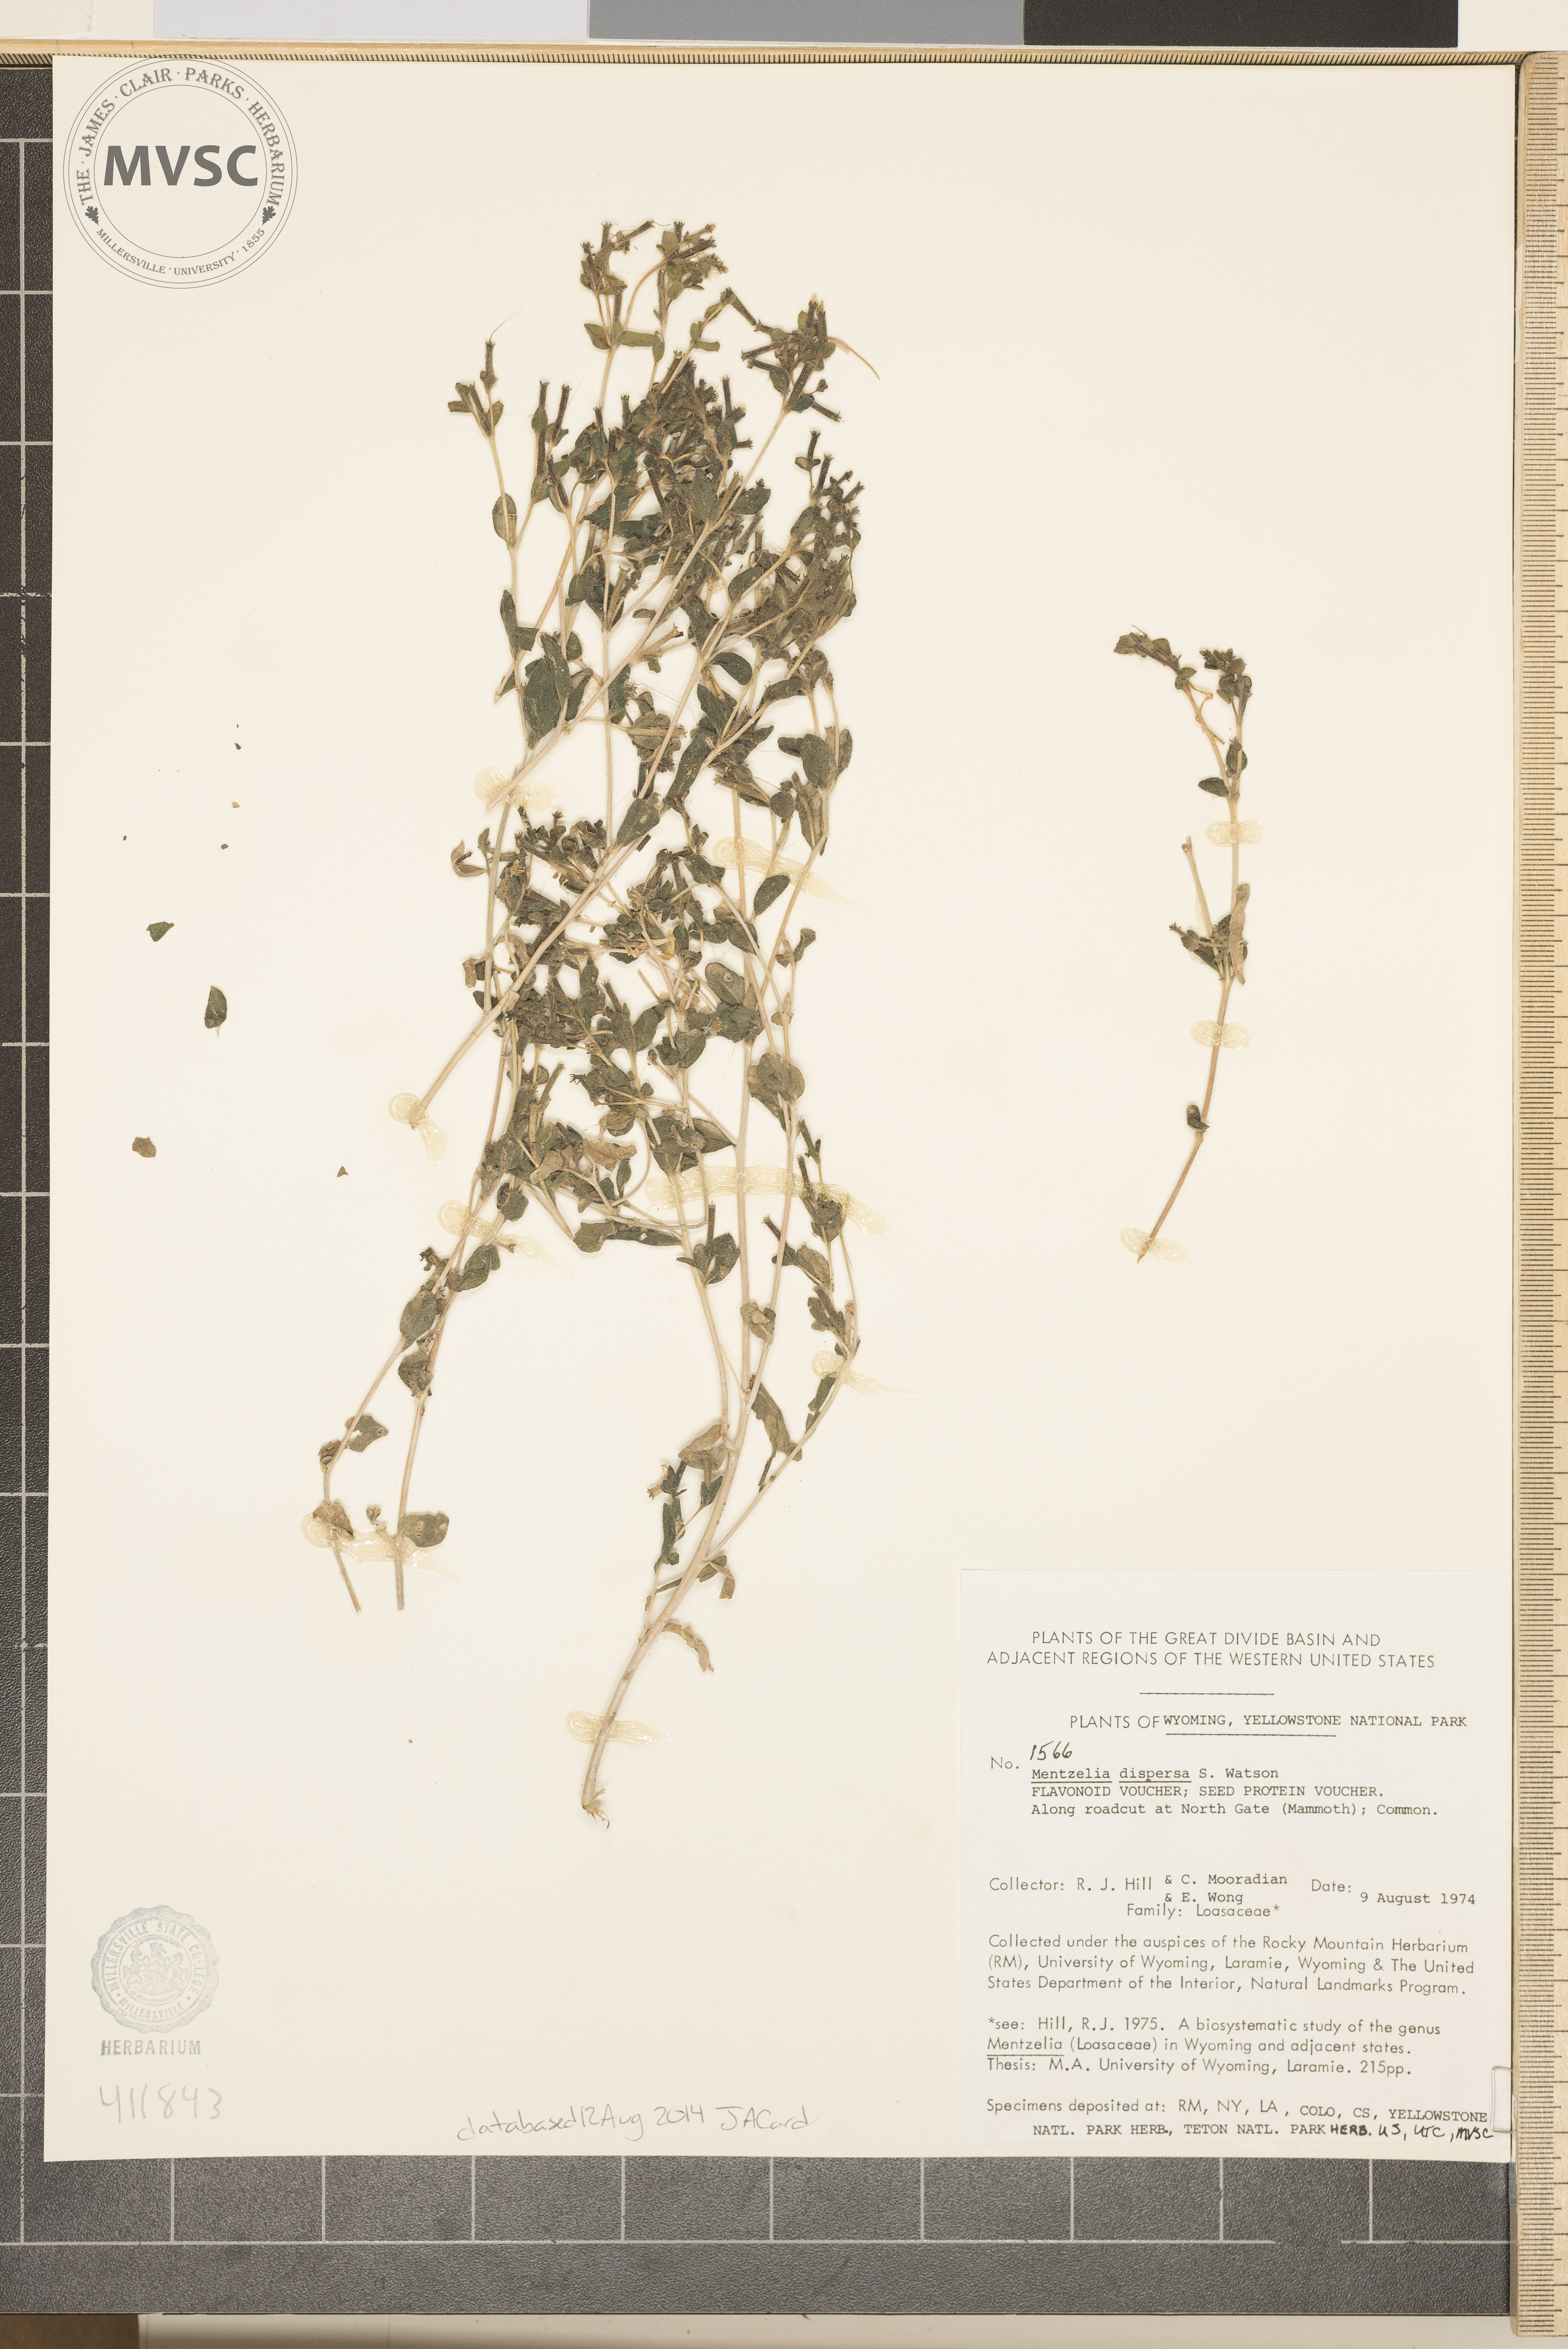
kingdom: Plantae
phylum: Tracheophyta
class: Magnoliopsida
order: Cornales
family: Loasaceae
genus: Mentzelia
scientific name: Mentzelia dispersa
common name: Nada stickleaf
